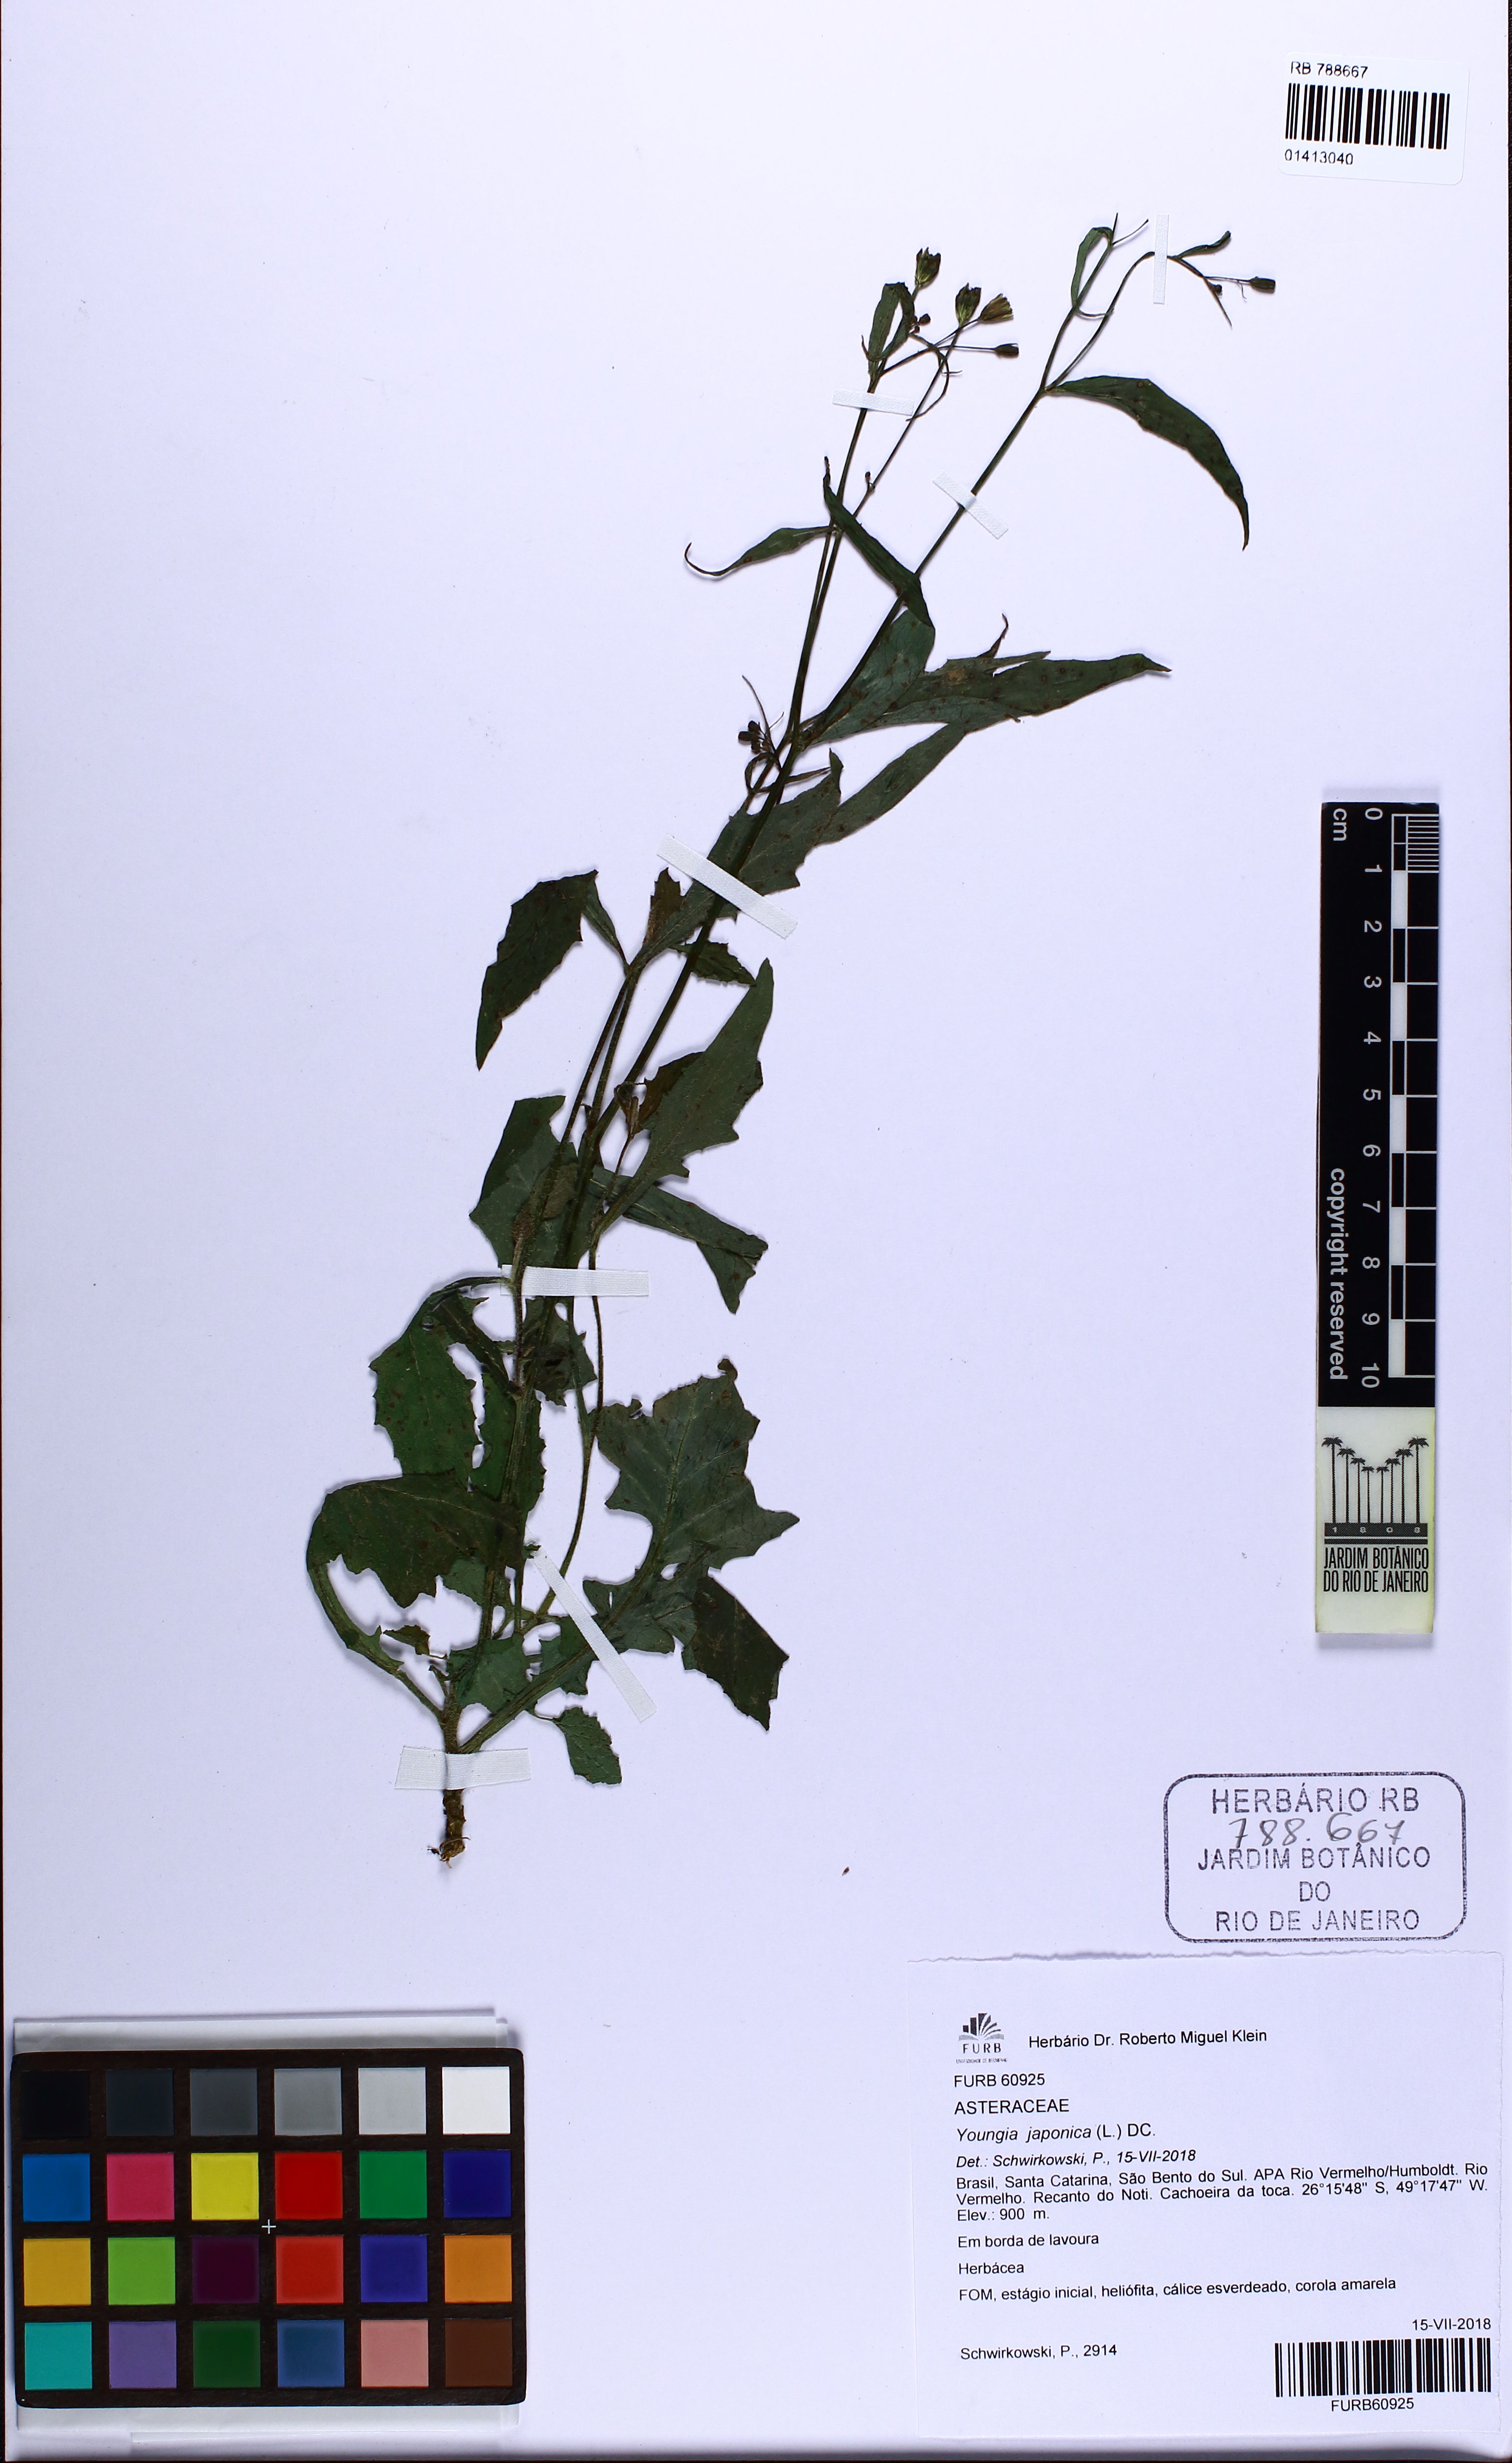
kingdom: Plantae
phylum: Tracheophyta
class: Magnoliopsida
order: Asterales
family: Asteraceae
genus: Youngia
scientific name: Youngia japonica
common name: Oriental false hawksbeard
